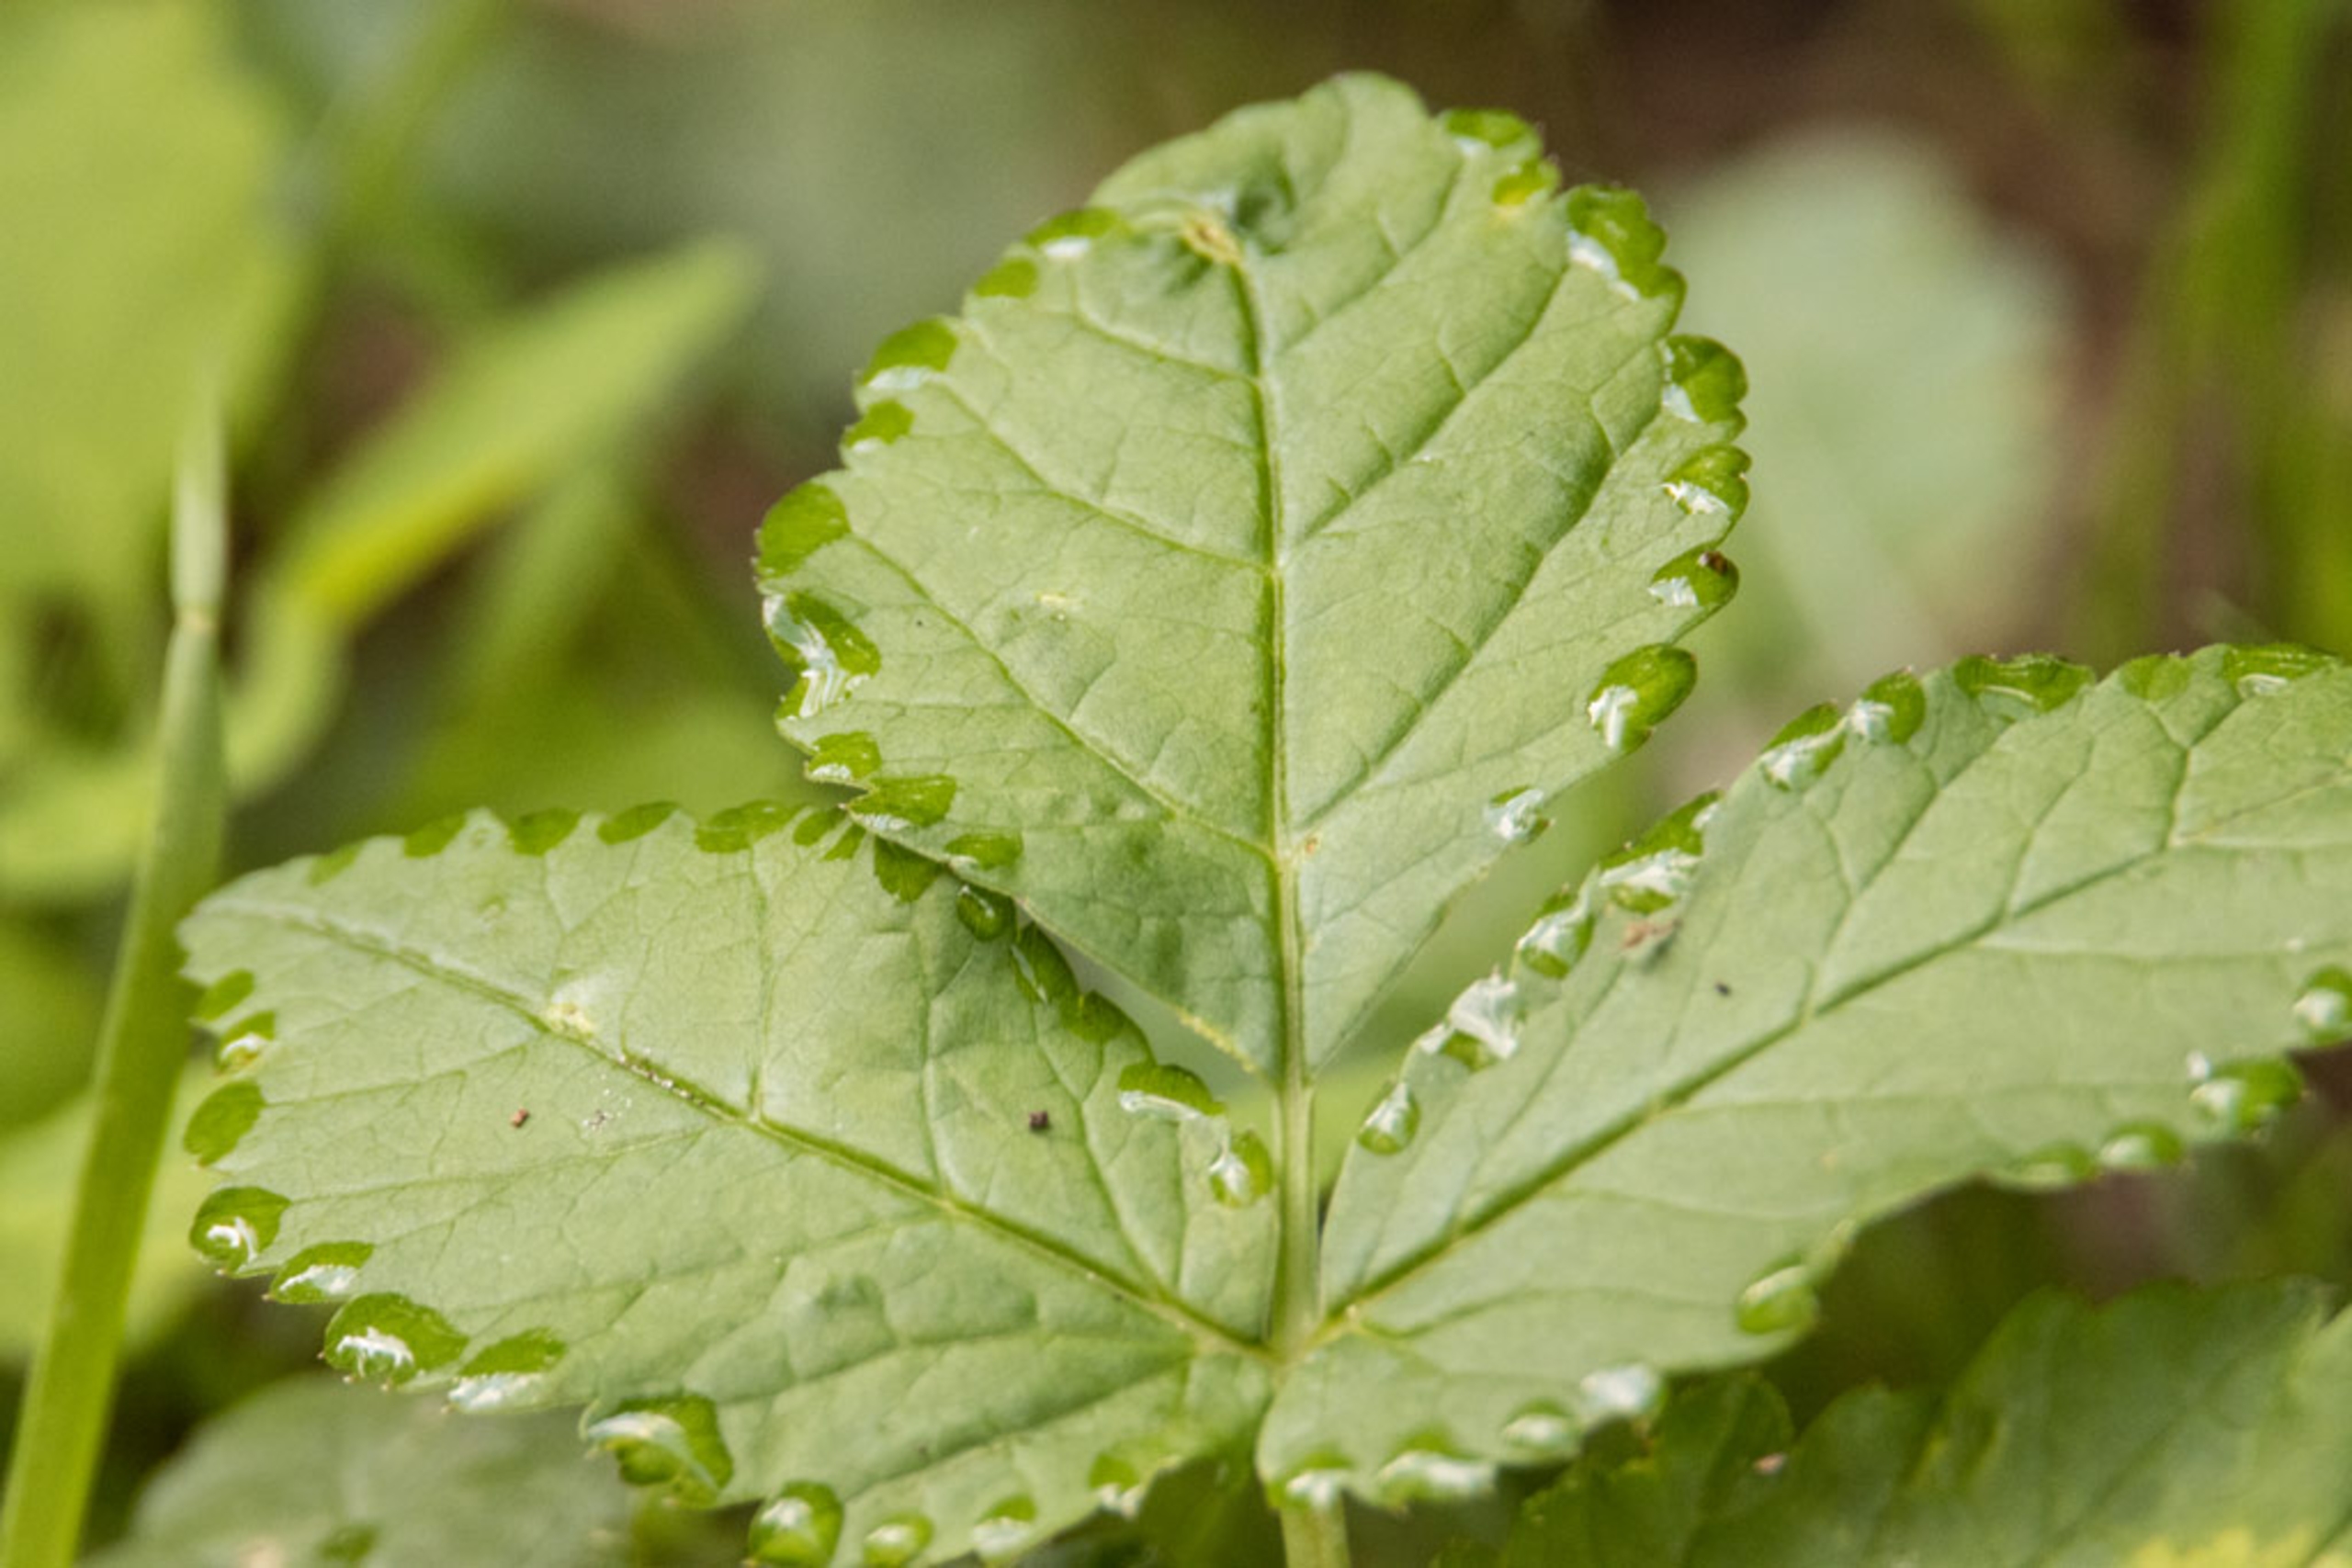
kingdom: Plantae
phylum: Tracheophyta
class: Magnoliopsida
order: Apiales
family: Apiaceae
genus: Aegopodium
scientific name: Aegopodium podagraria
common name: Skvalderkål
